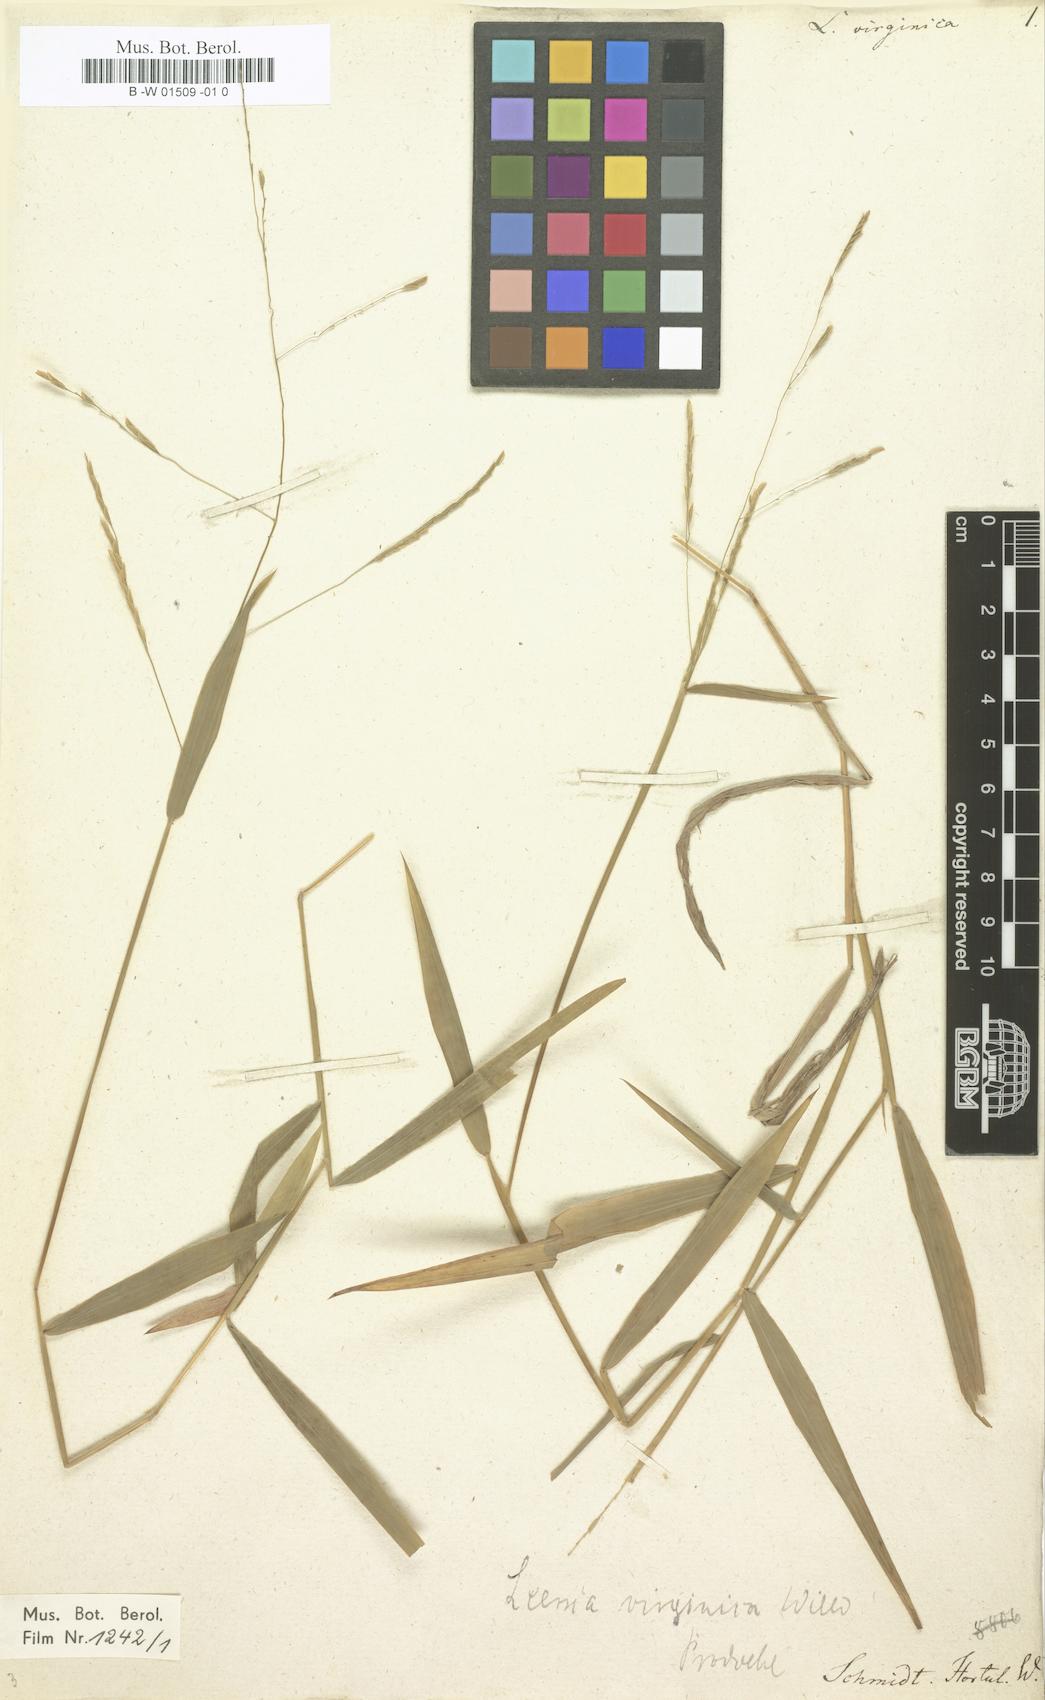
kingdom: Plantae
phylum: Tracheophyta
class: Liliopsida
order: Poales
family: Poaceae
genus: Leersia
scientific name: Leersia virginica
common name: White cutgrass
